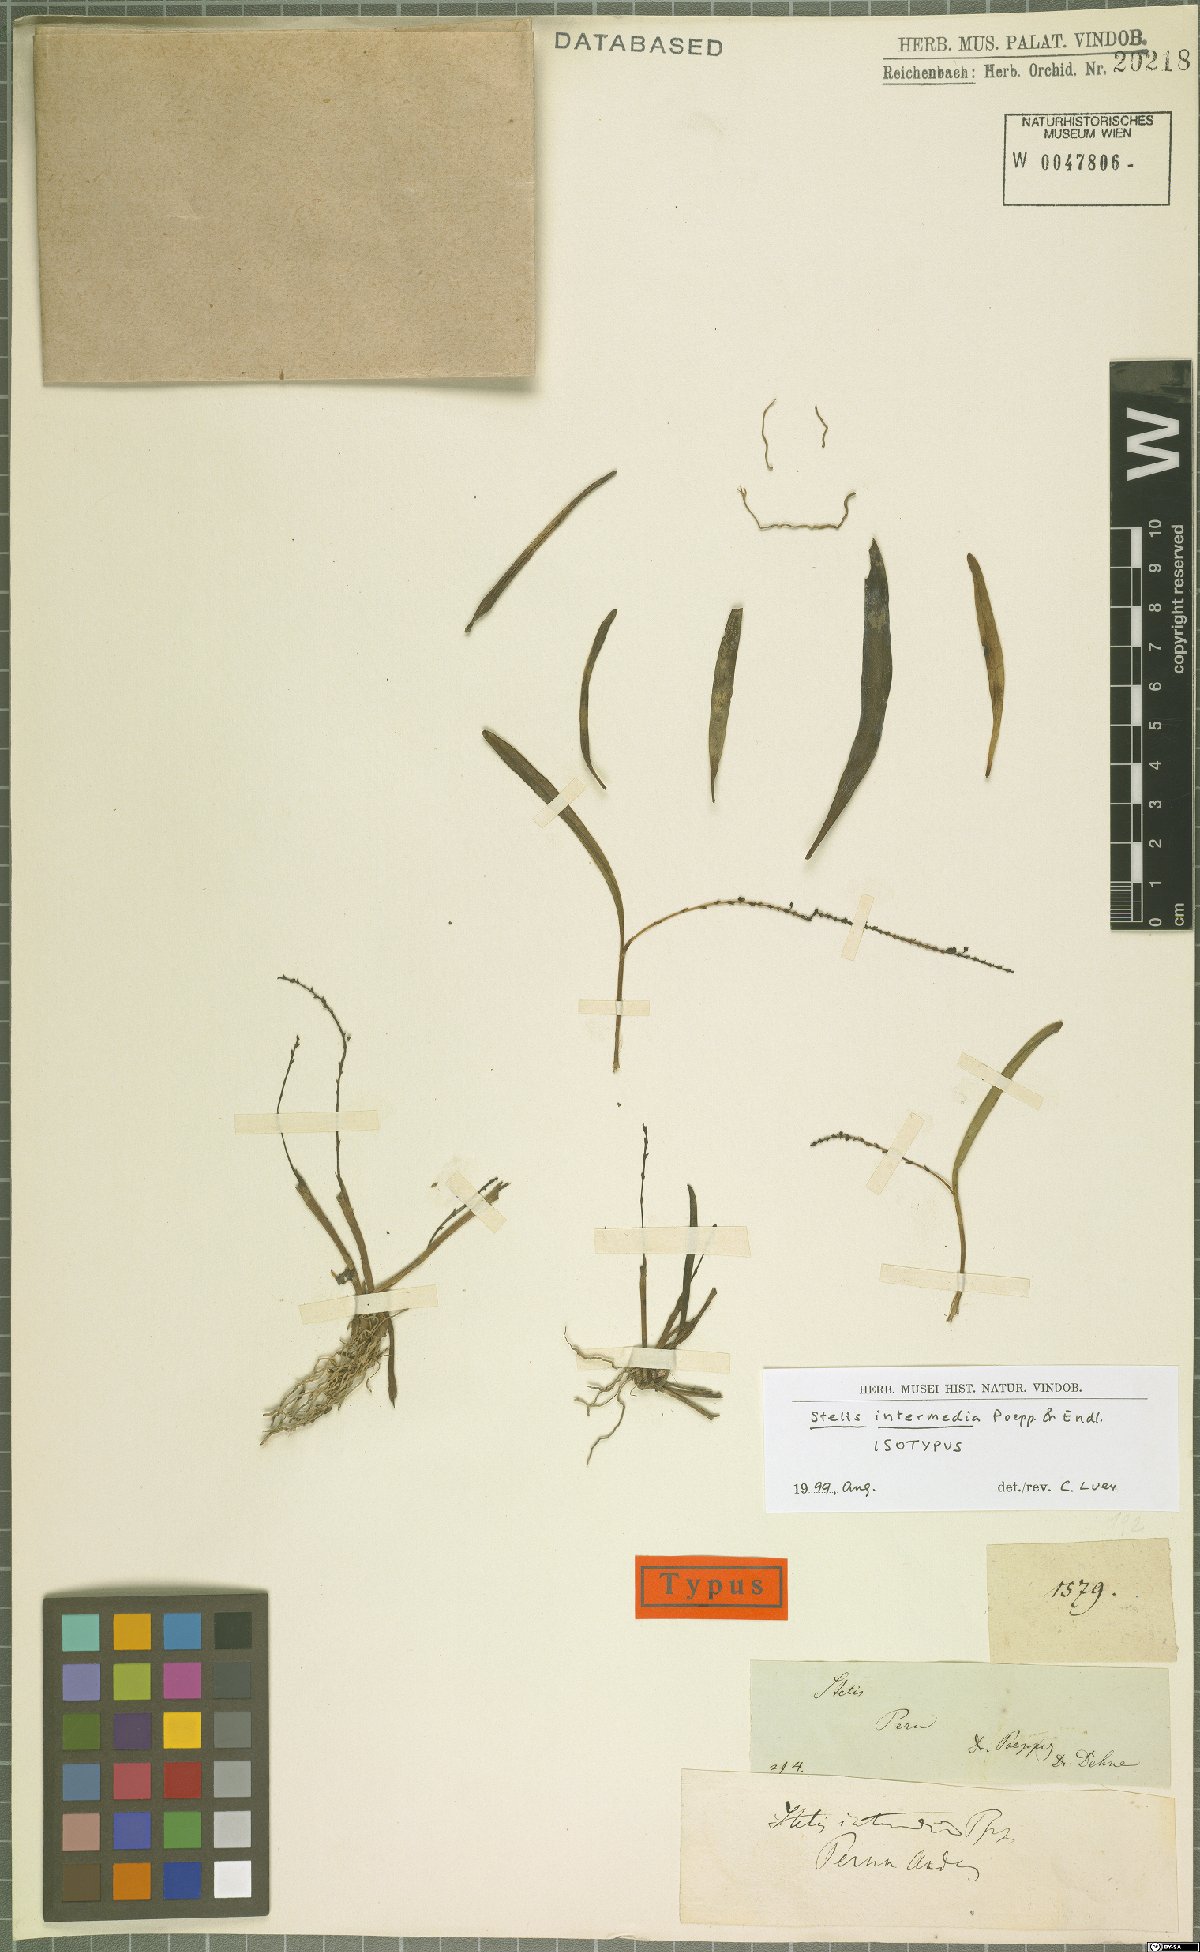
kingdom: Plantae
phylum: Tracheophyta
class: Liliopsida
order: Asparagales
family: Orchidaceae
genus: Stelis
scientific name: Stelis intermedia
